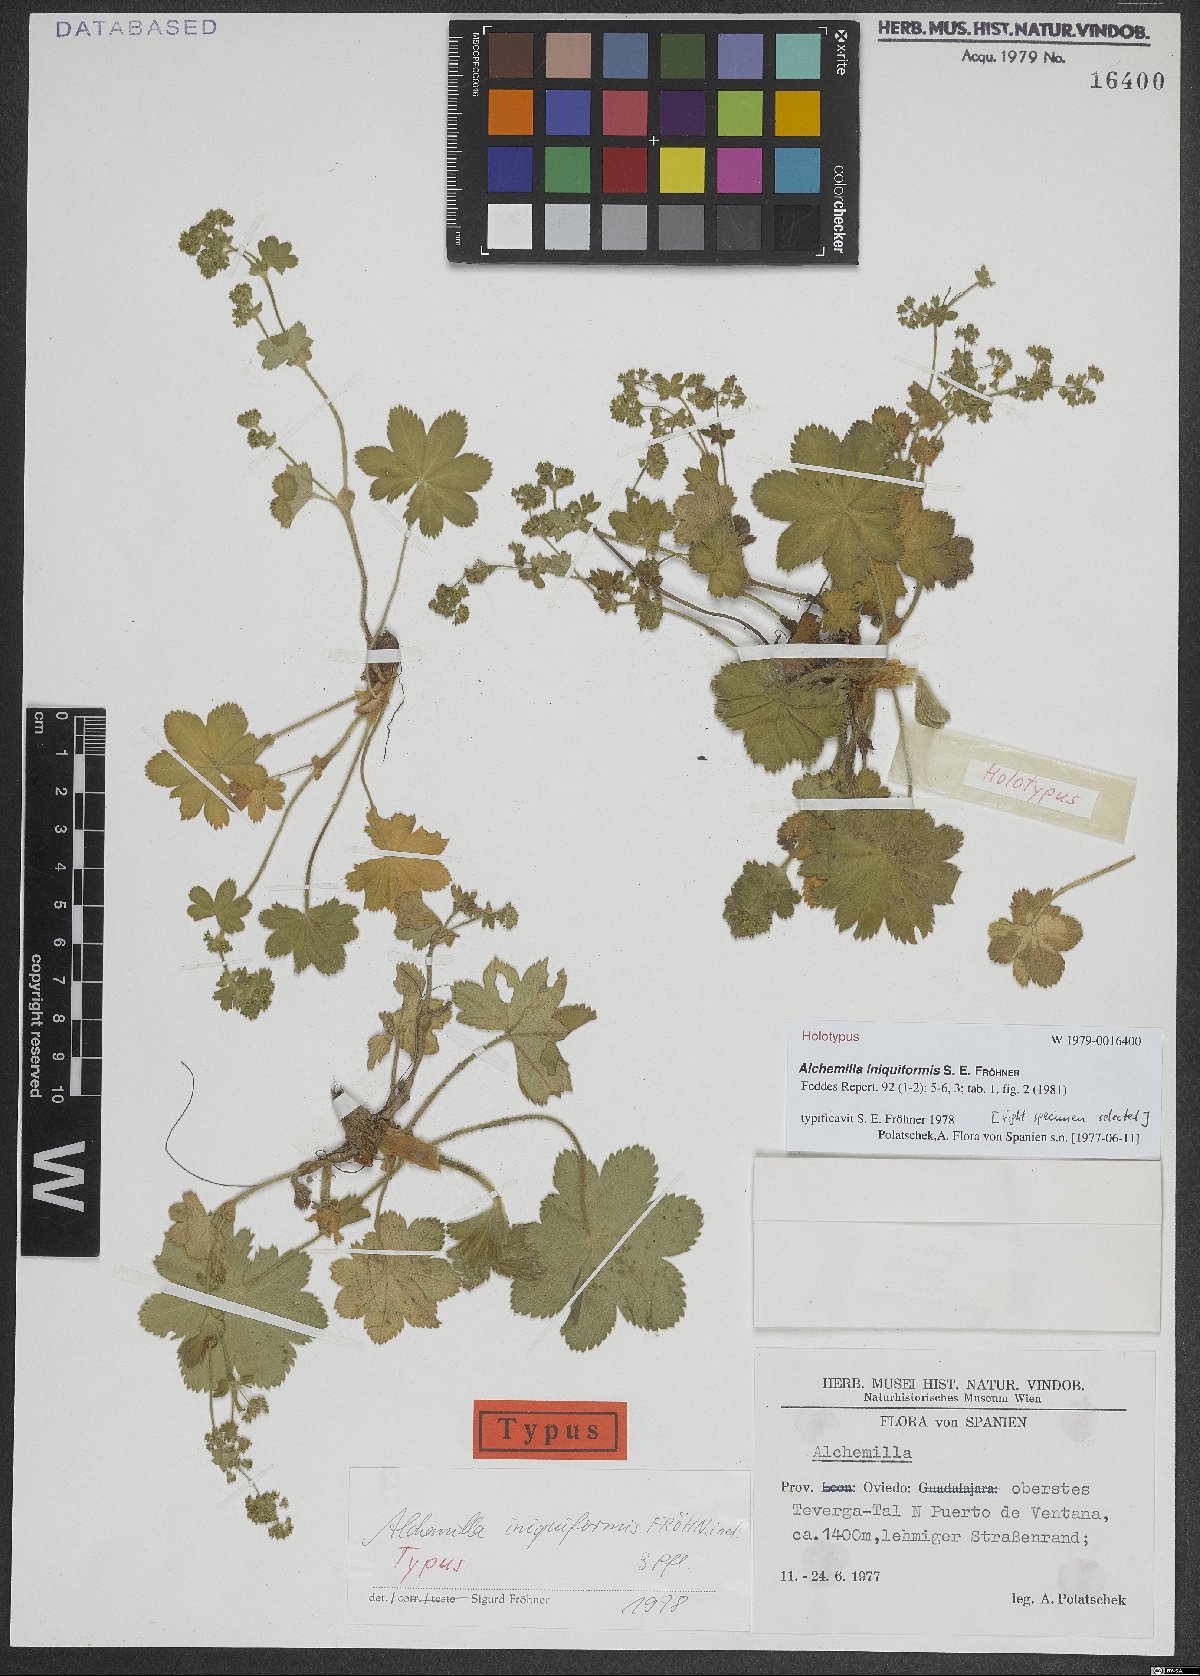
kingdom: Plantae
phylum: Tracheophyta
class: Magnoliopsida
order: Rosales
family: Rosaceae
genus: Alchemilla
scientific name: Alchemilla iniquiformis
